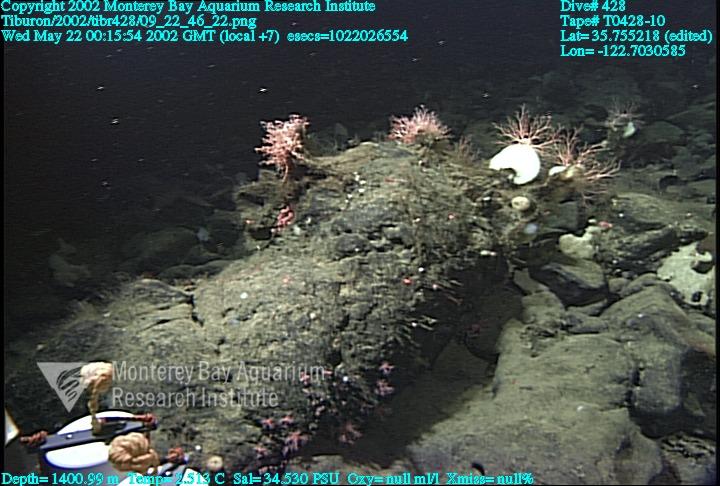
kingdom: Animalia
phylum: Porifera
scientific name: Porifera
